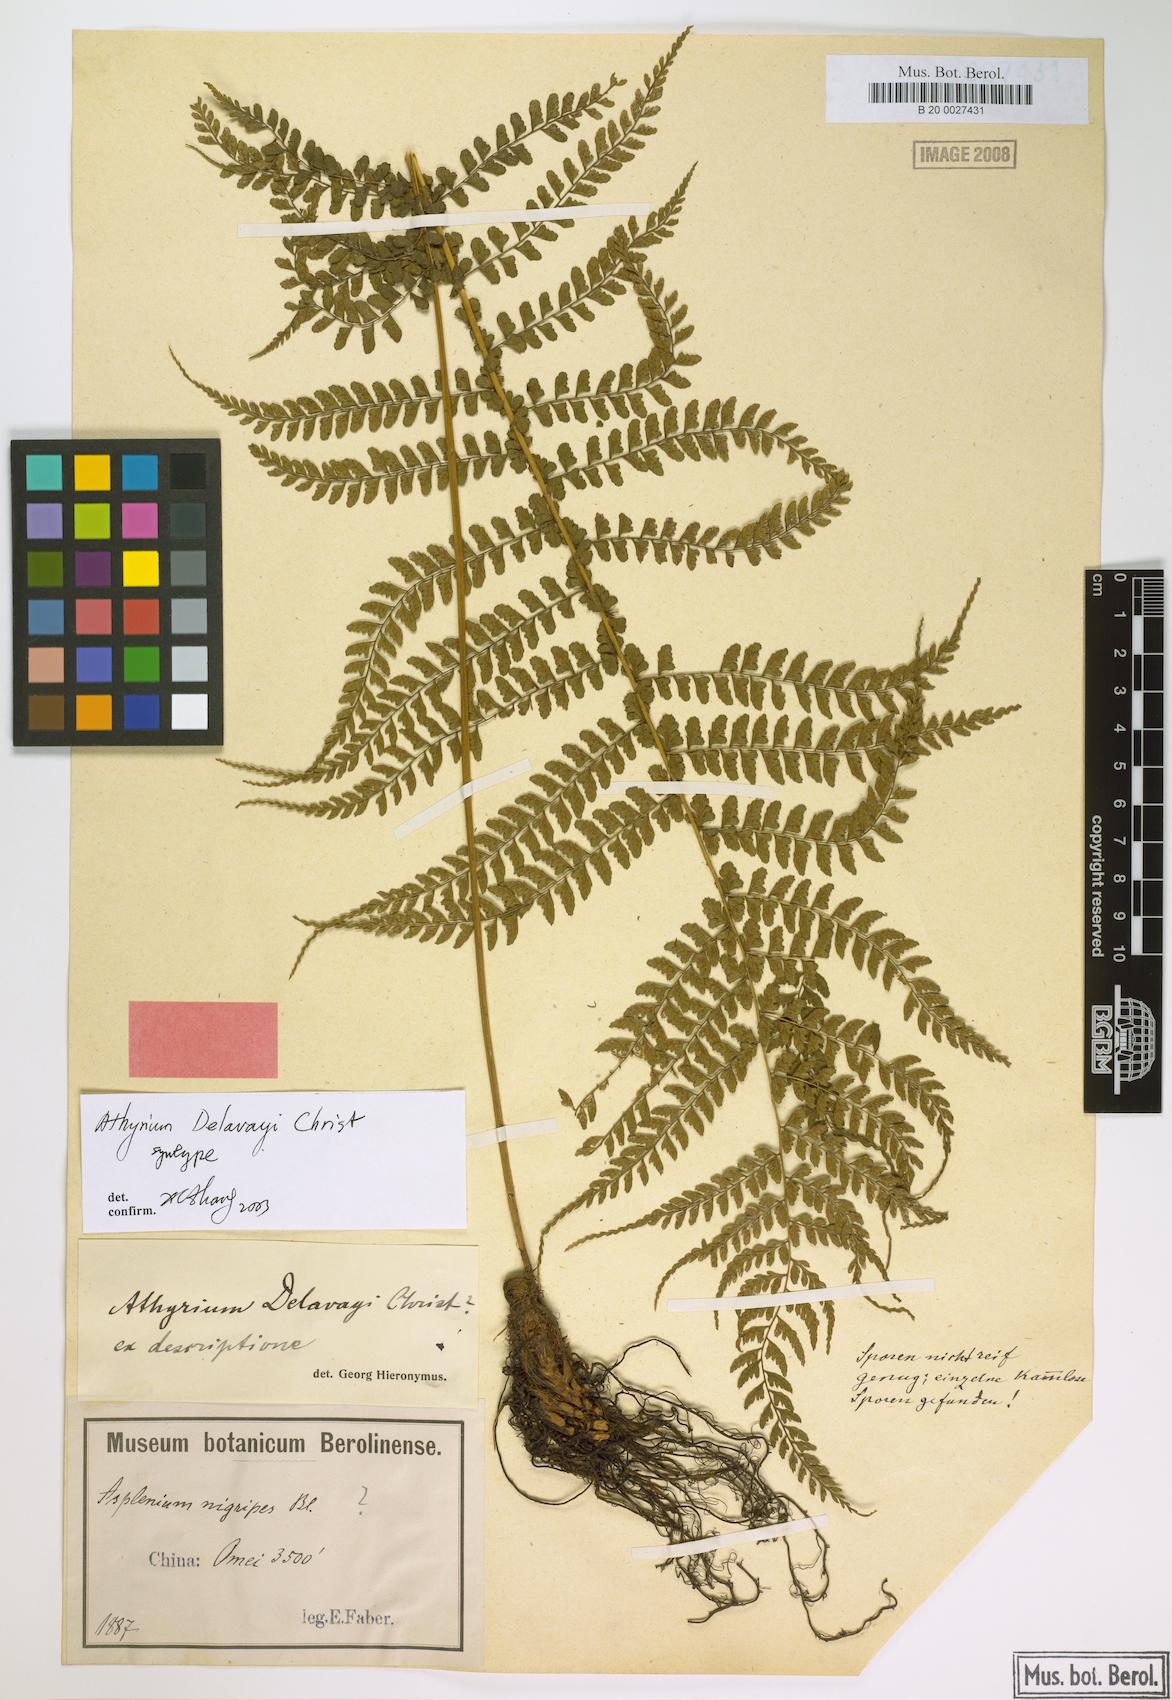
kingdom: Plantae
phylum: Tracheophyta
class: Polypodiopsida
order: Polypodiales
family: Athyriaceae
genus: Athyrium
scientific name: Athyrium delavayi
